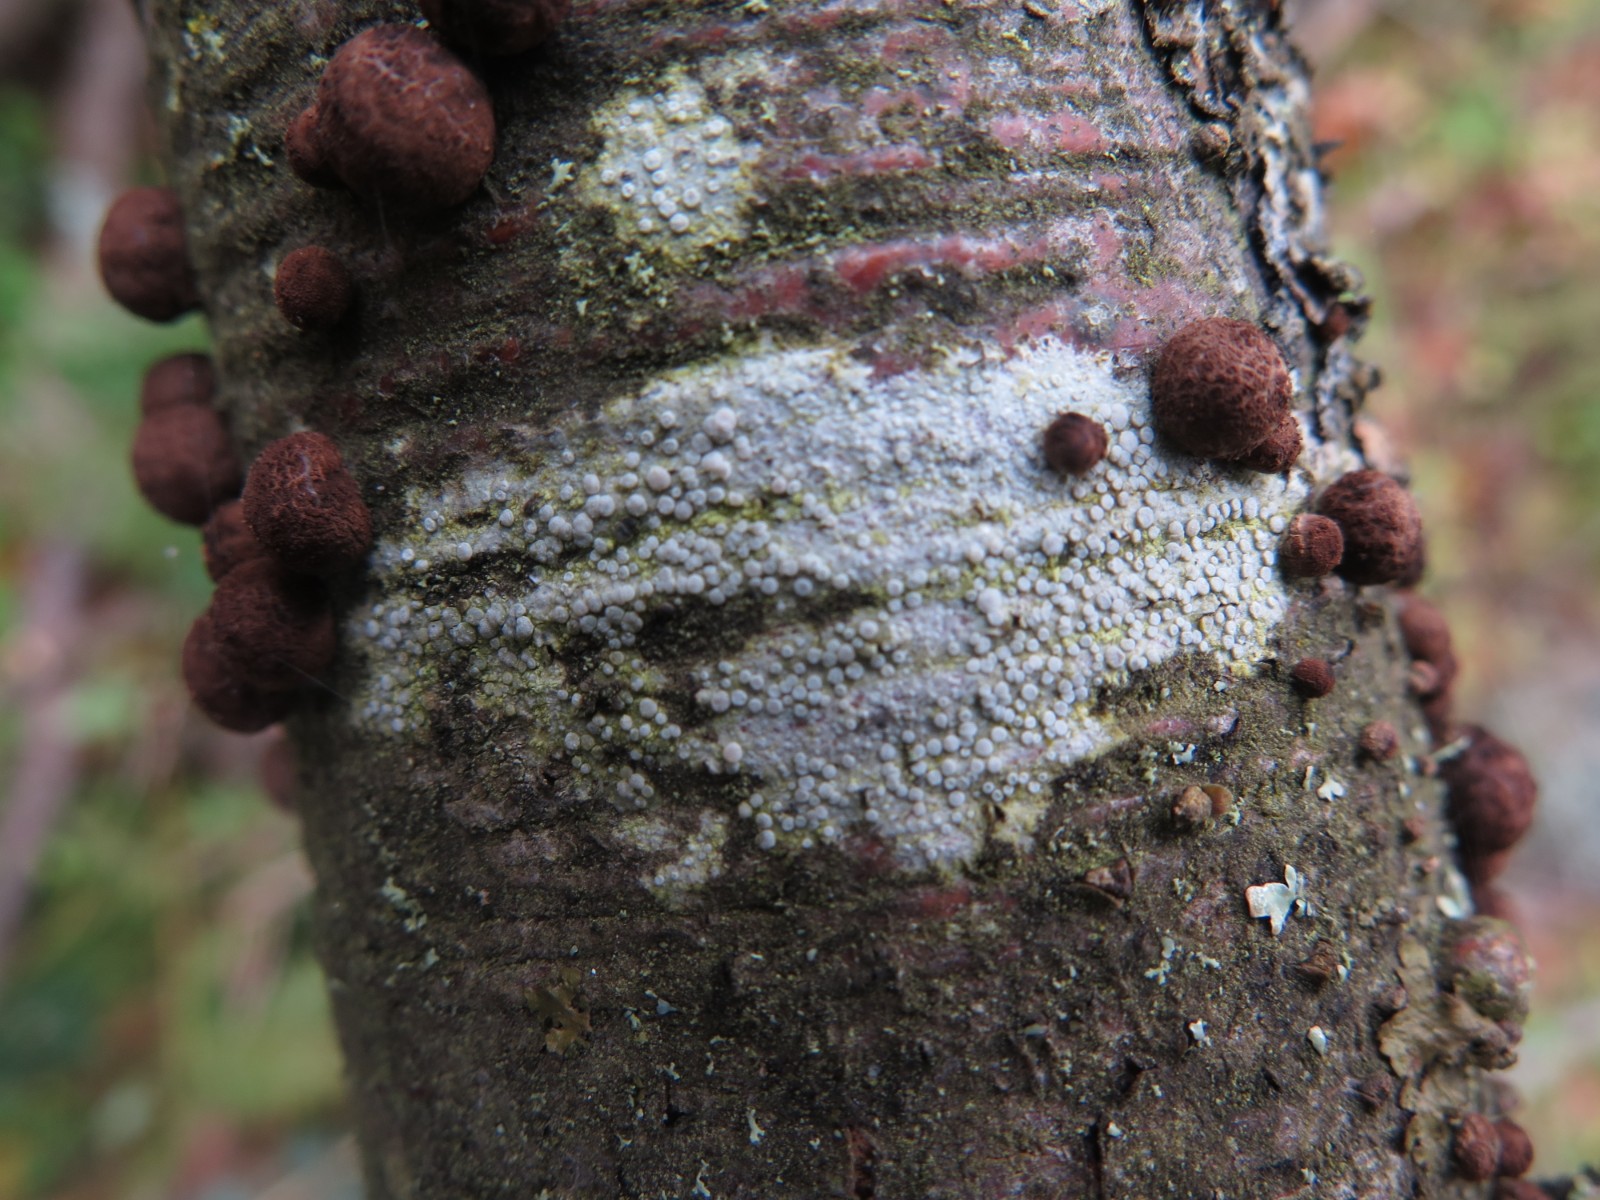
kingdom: Fungi
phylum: Ascomycota
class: Lecanoromycetes
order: Lecanorales
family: Lecanoraceae
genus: Glaucomaria
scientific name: Glaucomaria carpinea
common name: hviddugget kantskivelav
